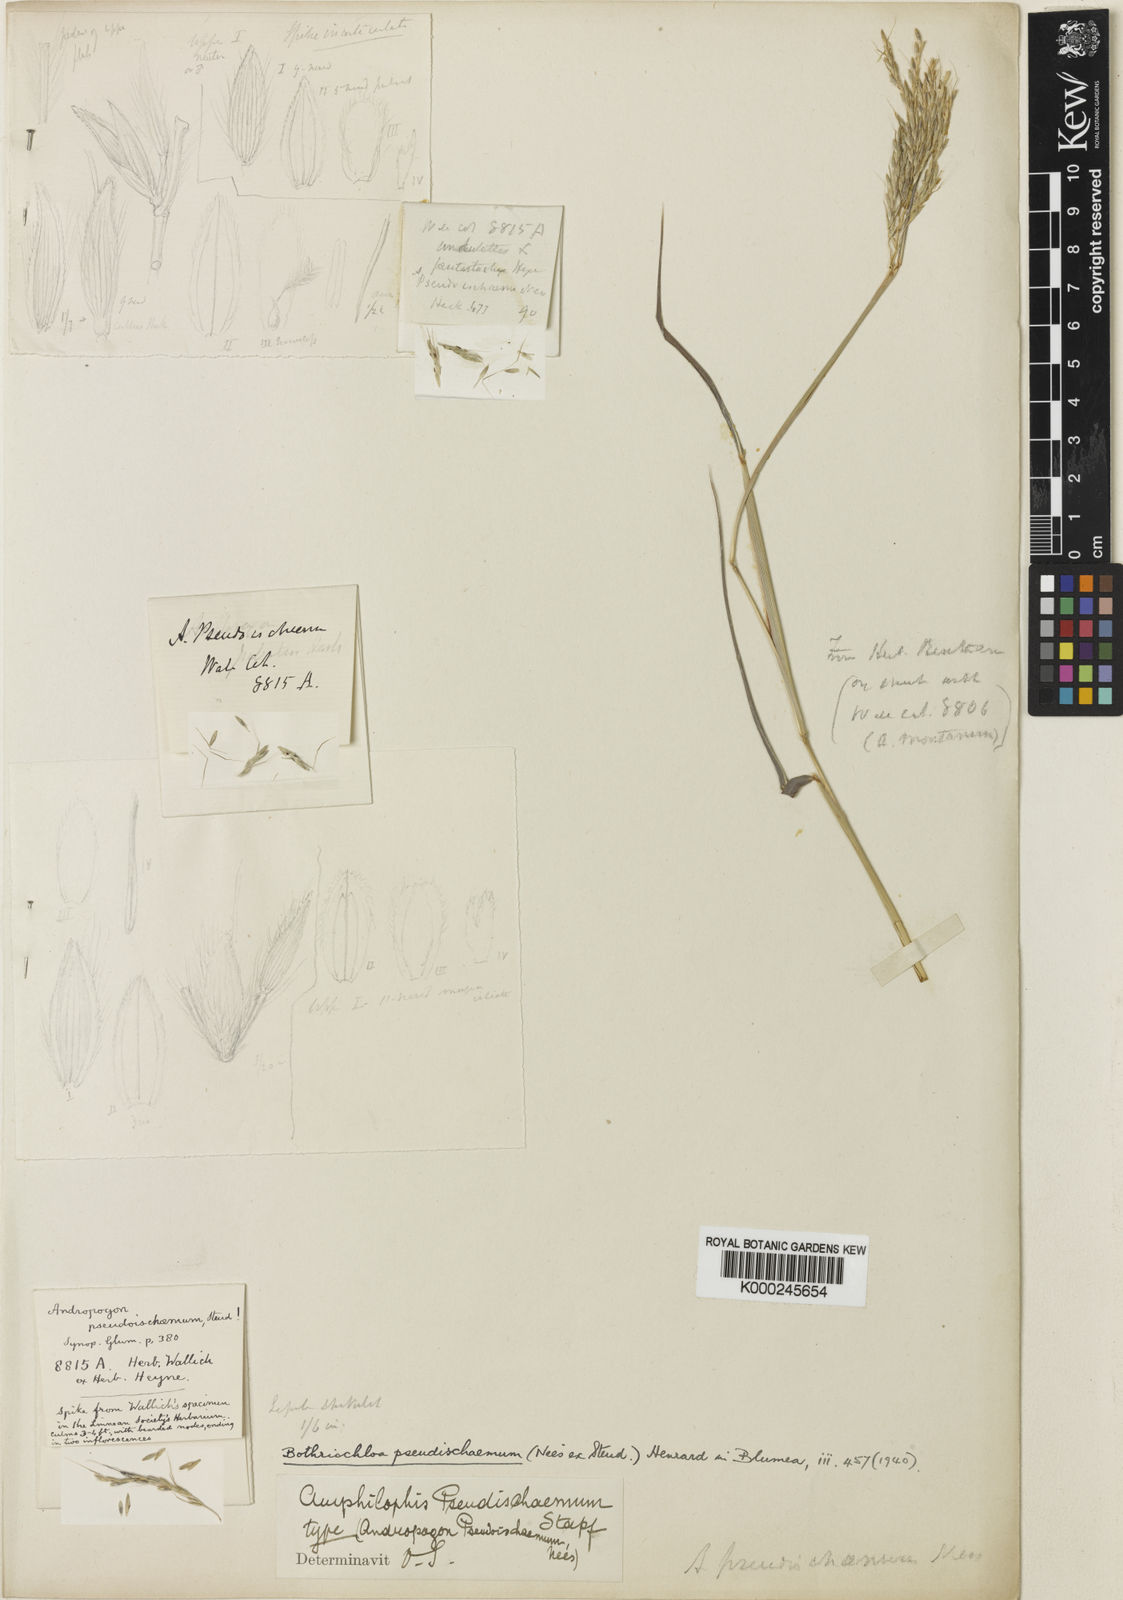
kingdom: Plantae
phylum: Tracheophyta
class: Liliopsida
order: Poales
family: Poaceae
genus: Bothriochloa
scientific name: Bothriochloa
